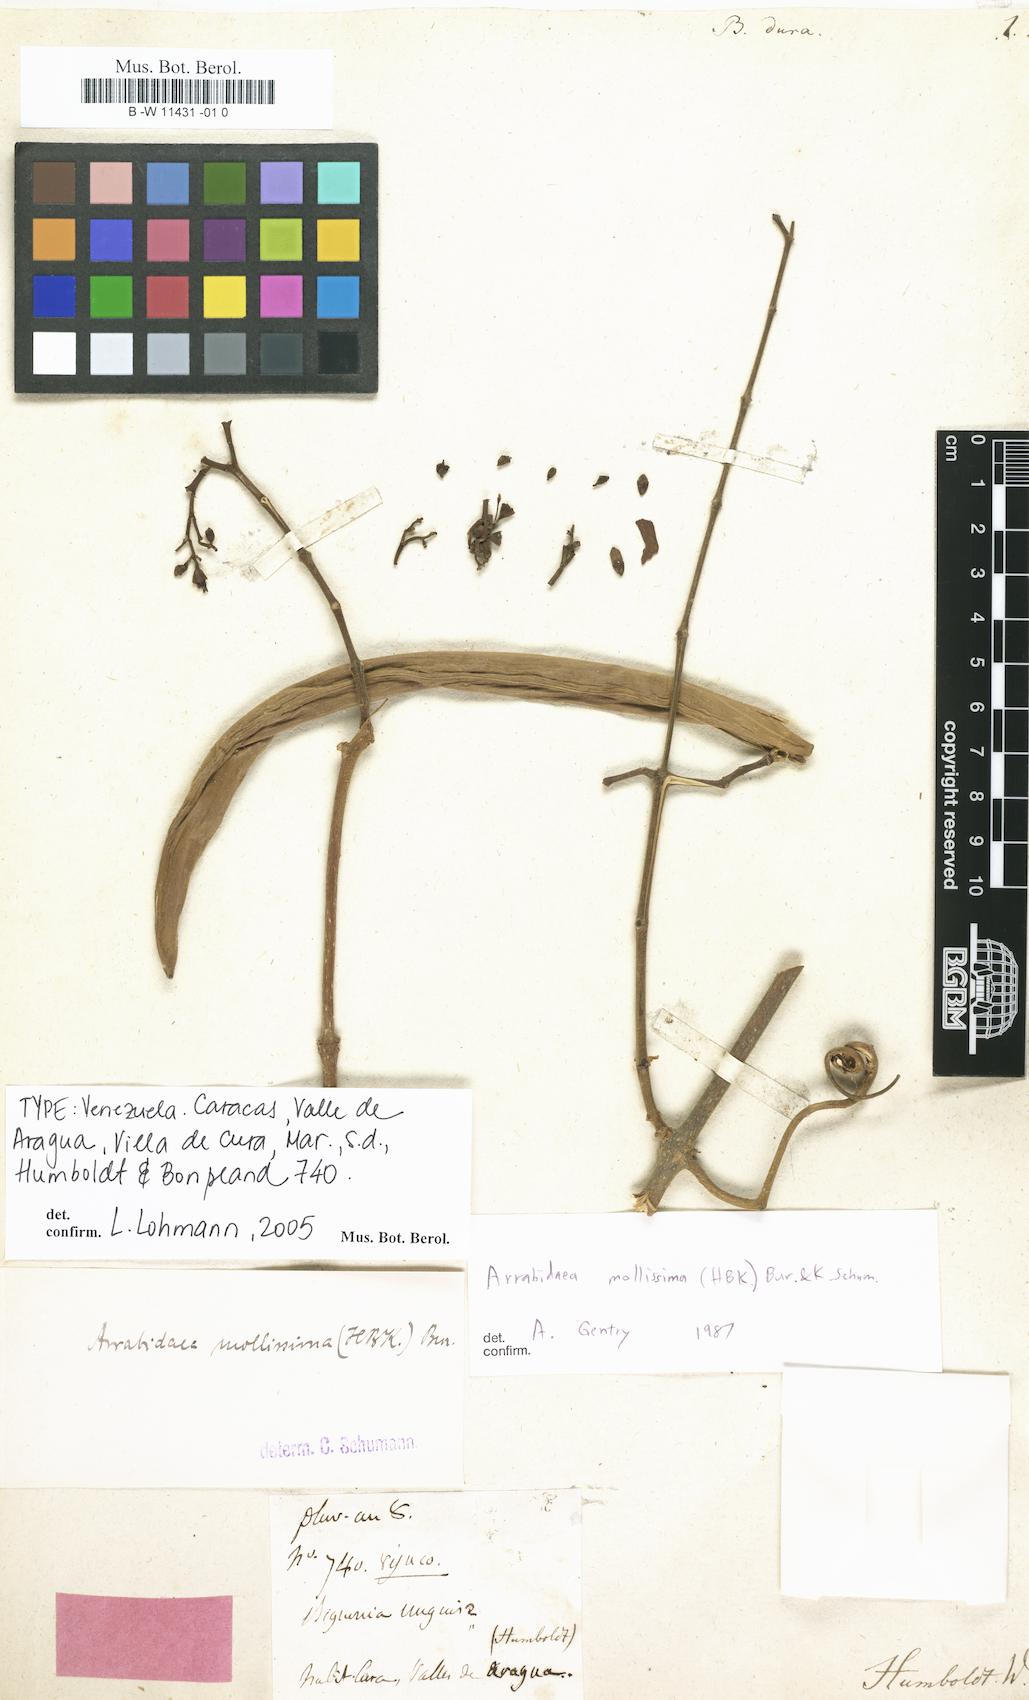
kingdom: Plantae
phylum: Tracheophyta
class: Magnoliopsida
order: Lamiales
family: Bignoniaceae
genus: Tabebuia
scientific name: Tabebuia insignis
